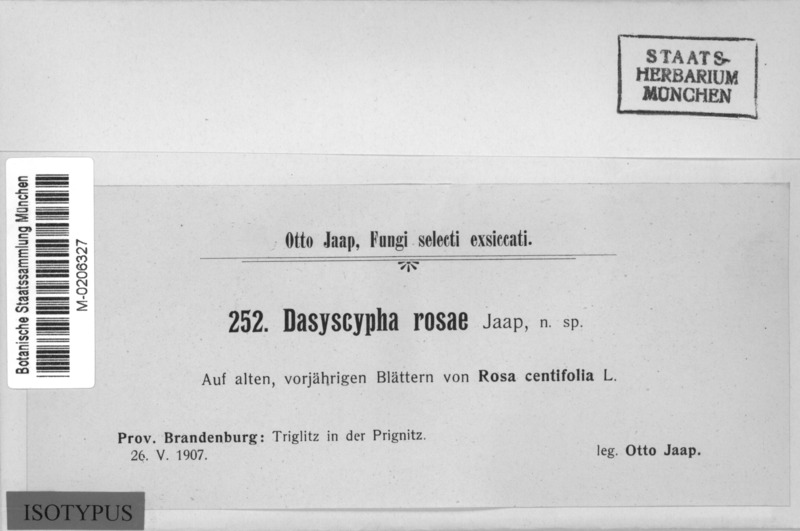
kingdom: Fungi
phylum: Ascomycota
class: Leotiomycetes
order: Helotiales
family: Lachnaceae
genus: Dasyscyphus
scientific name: Dasyscyphus rosae
